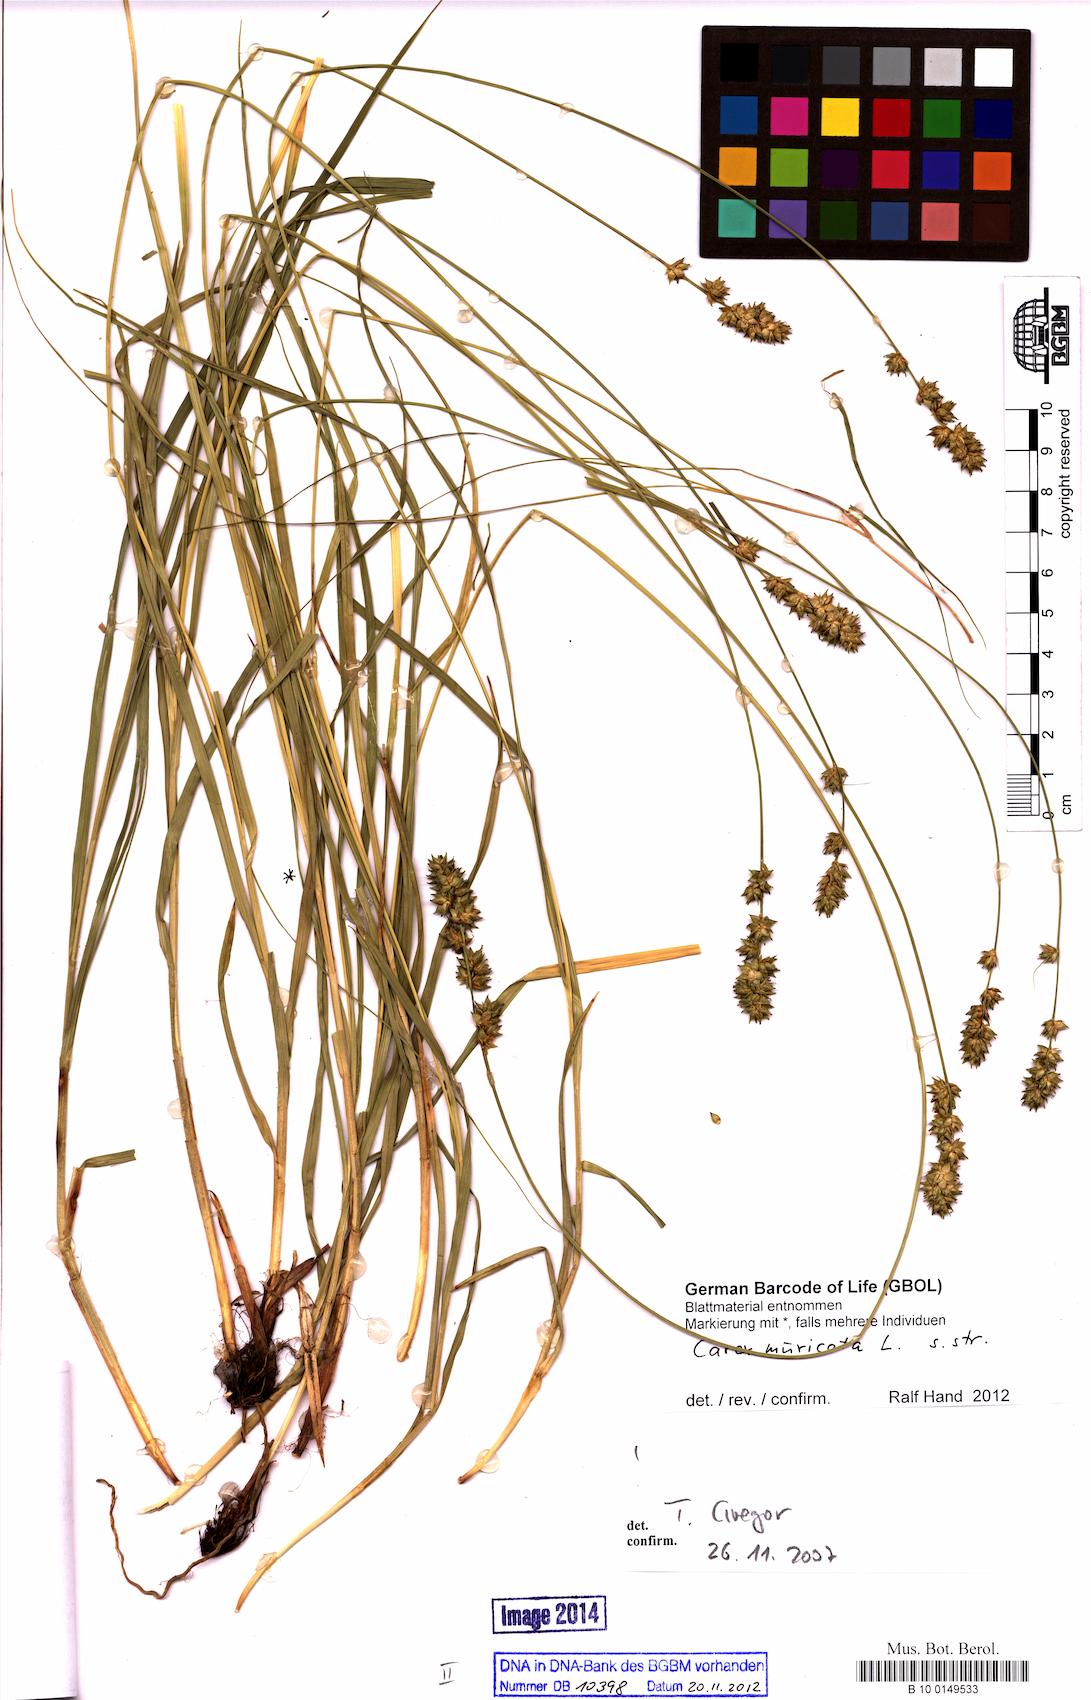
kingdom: Plantae
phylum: Tracheophyta
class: Liliopsida
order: Poales
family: Cyperaceae
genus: Carex
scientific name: Carex muricata
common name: Rough sedge
